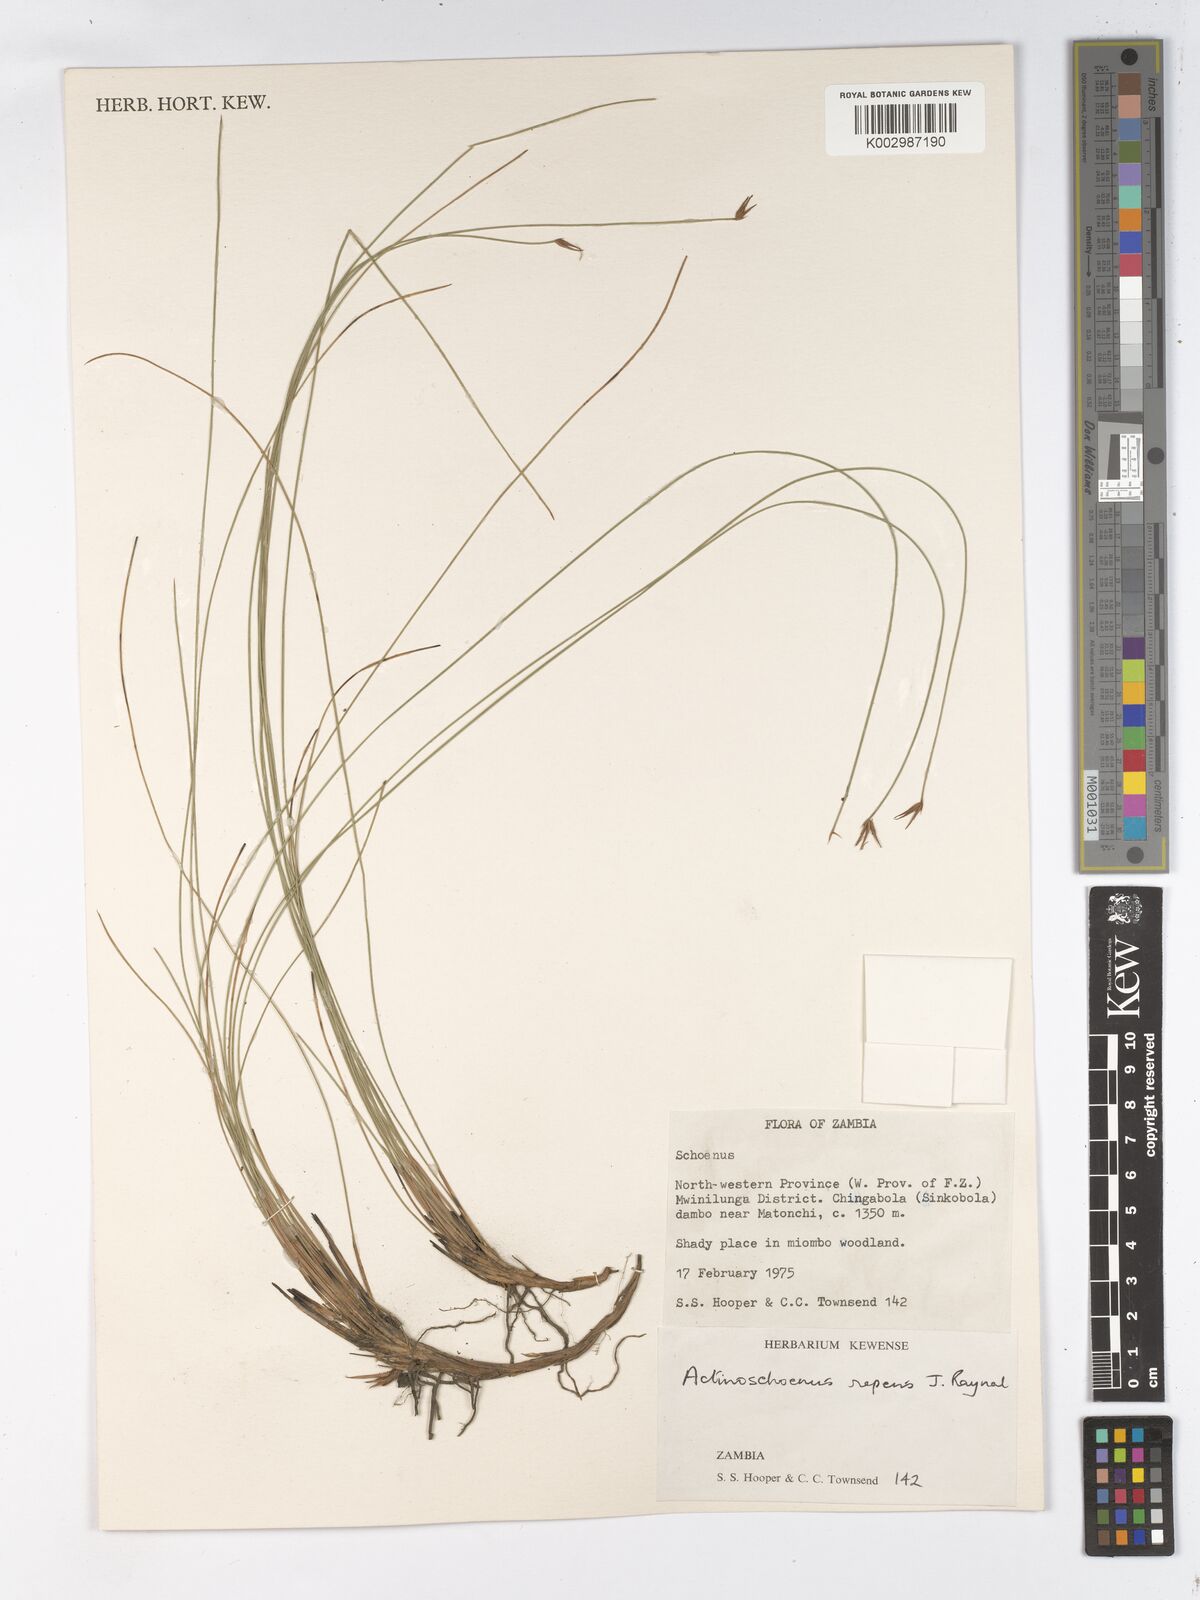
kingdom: Plantae
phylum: Tracheophyta
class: Liliopsida
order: Poales
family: Cyperaceae
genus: Actinoschoenus
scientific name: Actinoschoenus repens
